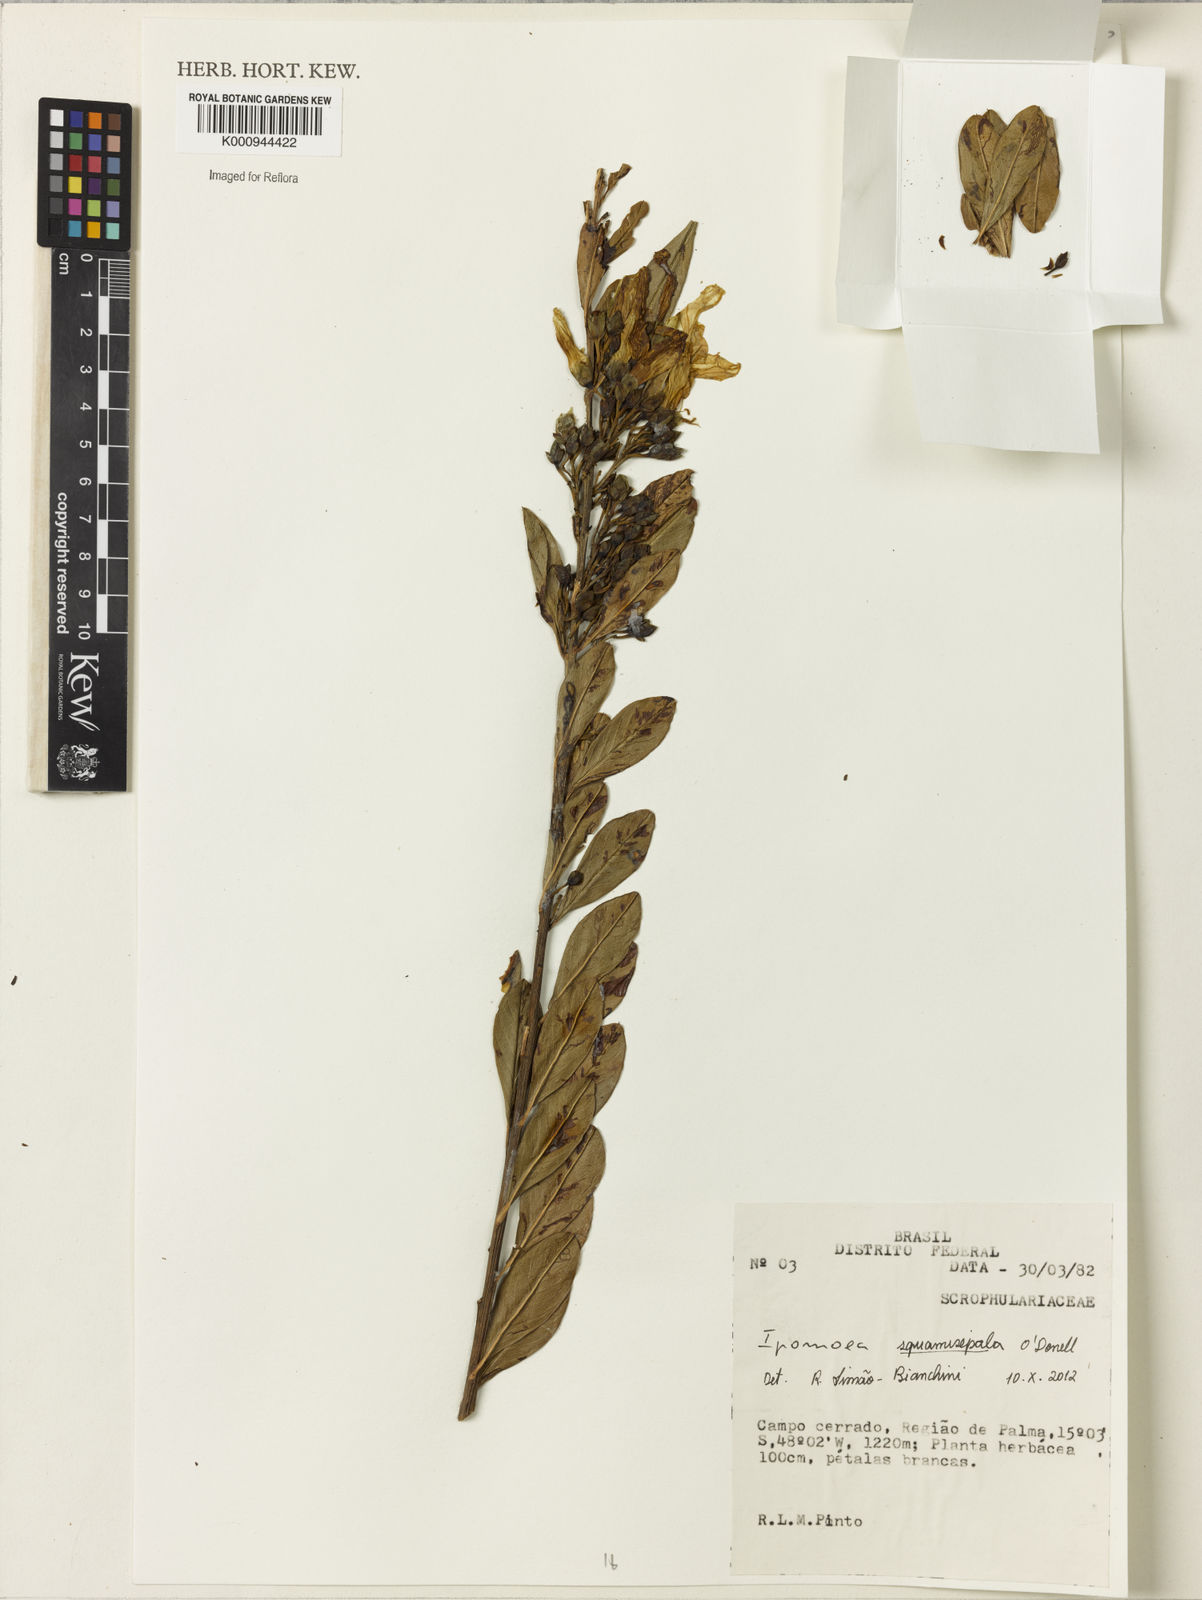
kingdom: Plantae
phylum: Tracheophyta
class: Magnoliopsida
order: Solanales
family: Convolvulaceae
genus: Ipomoea
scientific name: Ipomoea
